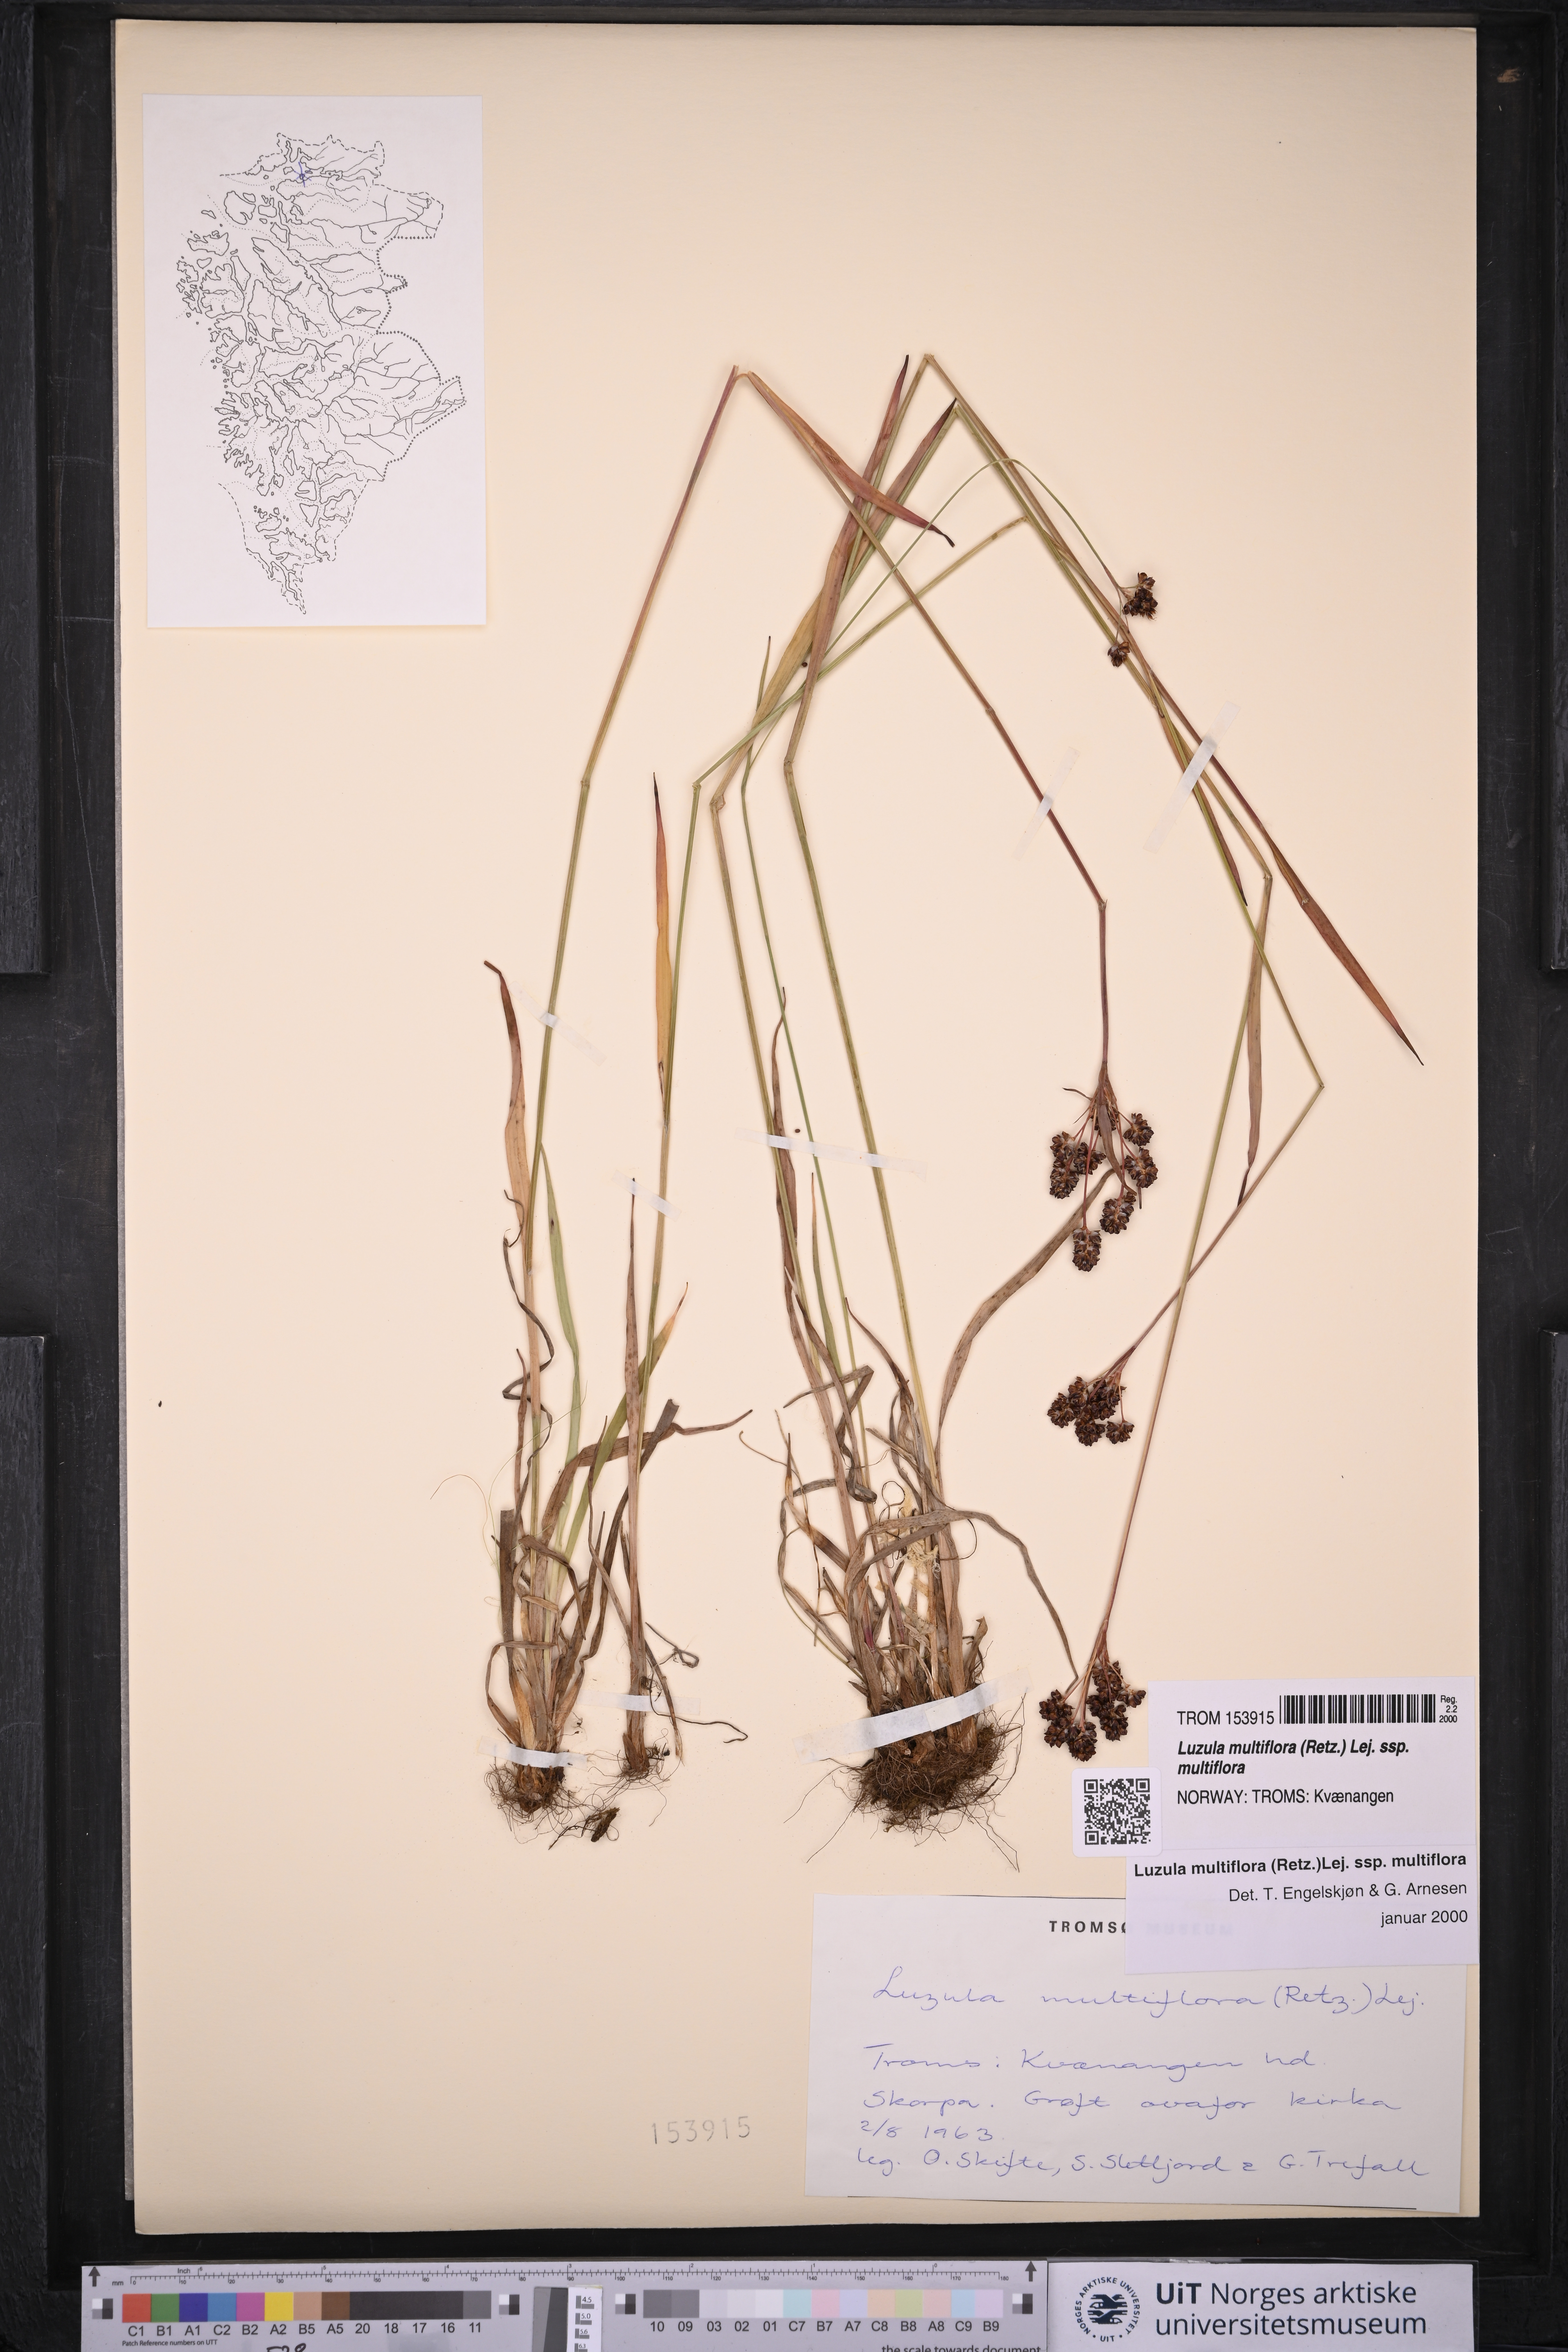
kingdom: Plantae
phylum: Tracheophyta
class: Liliopsida
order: Poales
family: Juncaceae
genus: Luzula
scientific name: Luzula multiflora
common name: Heath wood-rush
